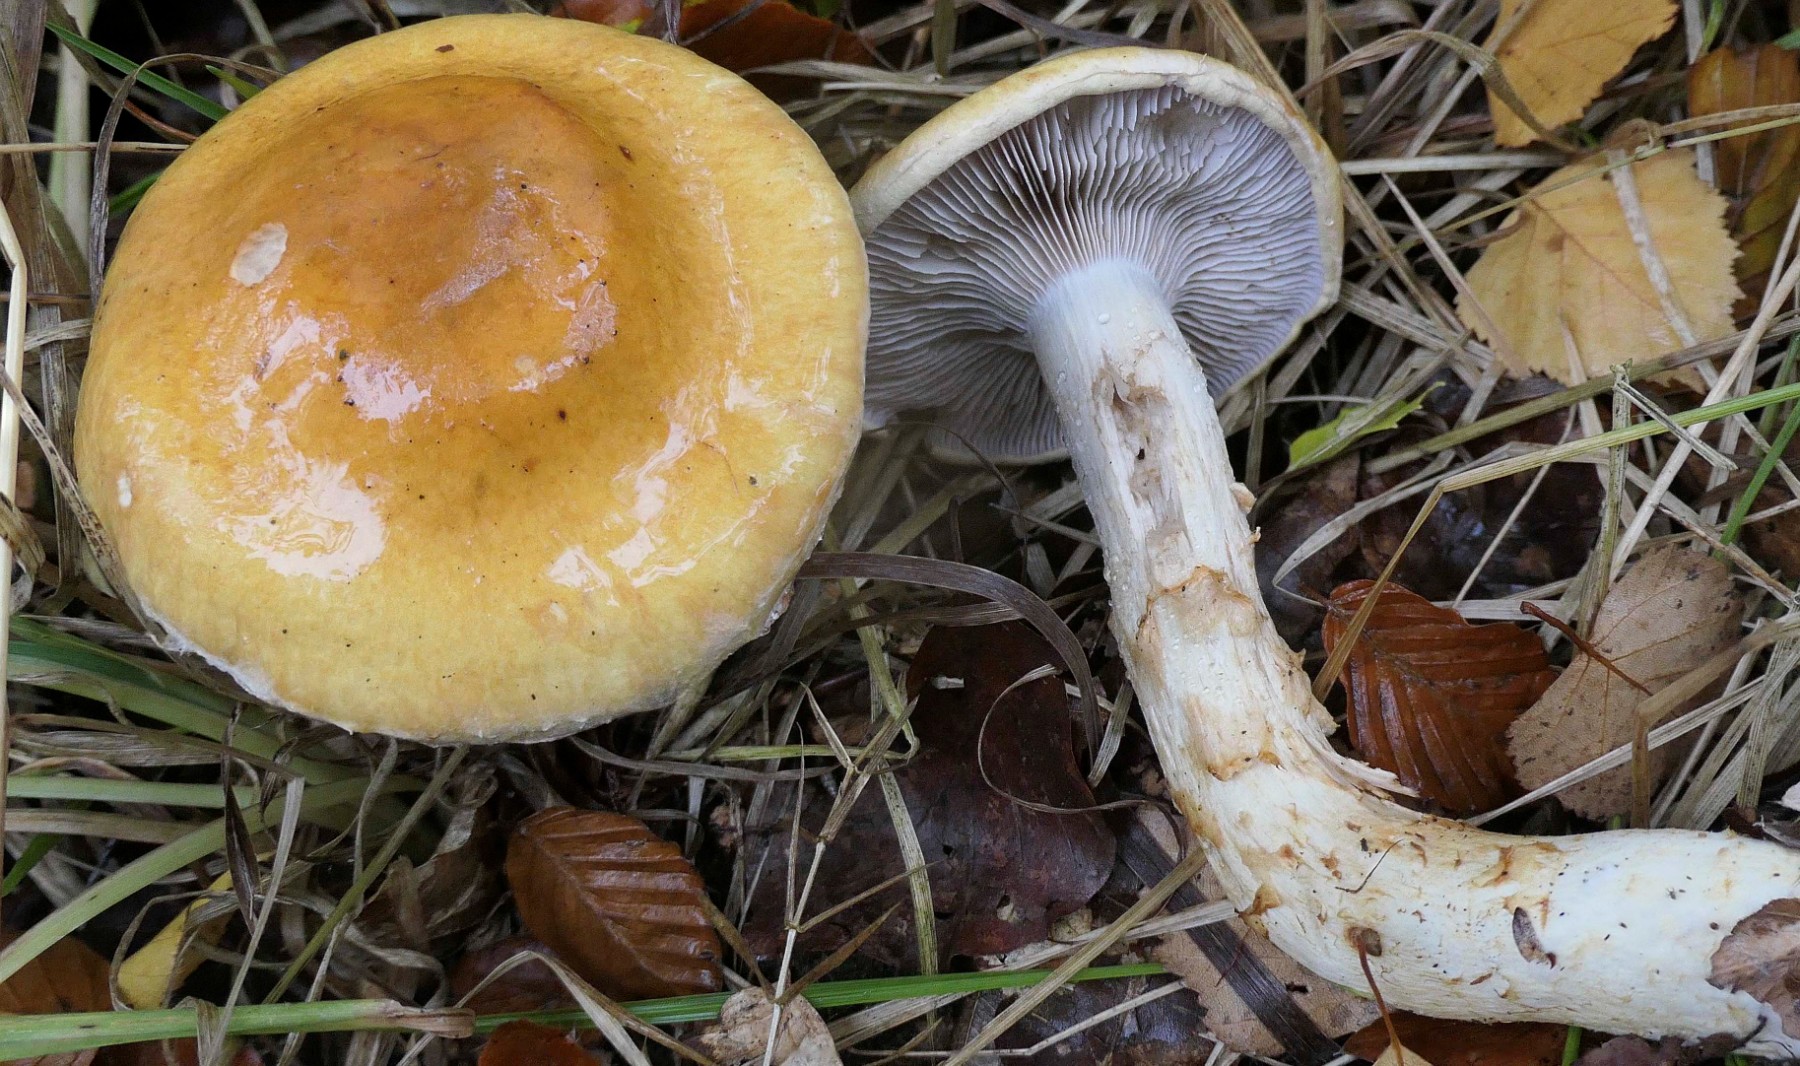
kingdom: Fungi
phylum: Basidiomycota
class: Agaricomycetes
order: Agaricales
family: Cortinariaceae
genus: Phlegmacium
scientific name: Phlegmacium triumphans
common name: gulbæltet slørhat
